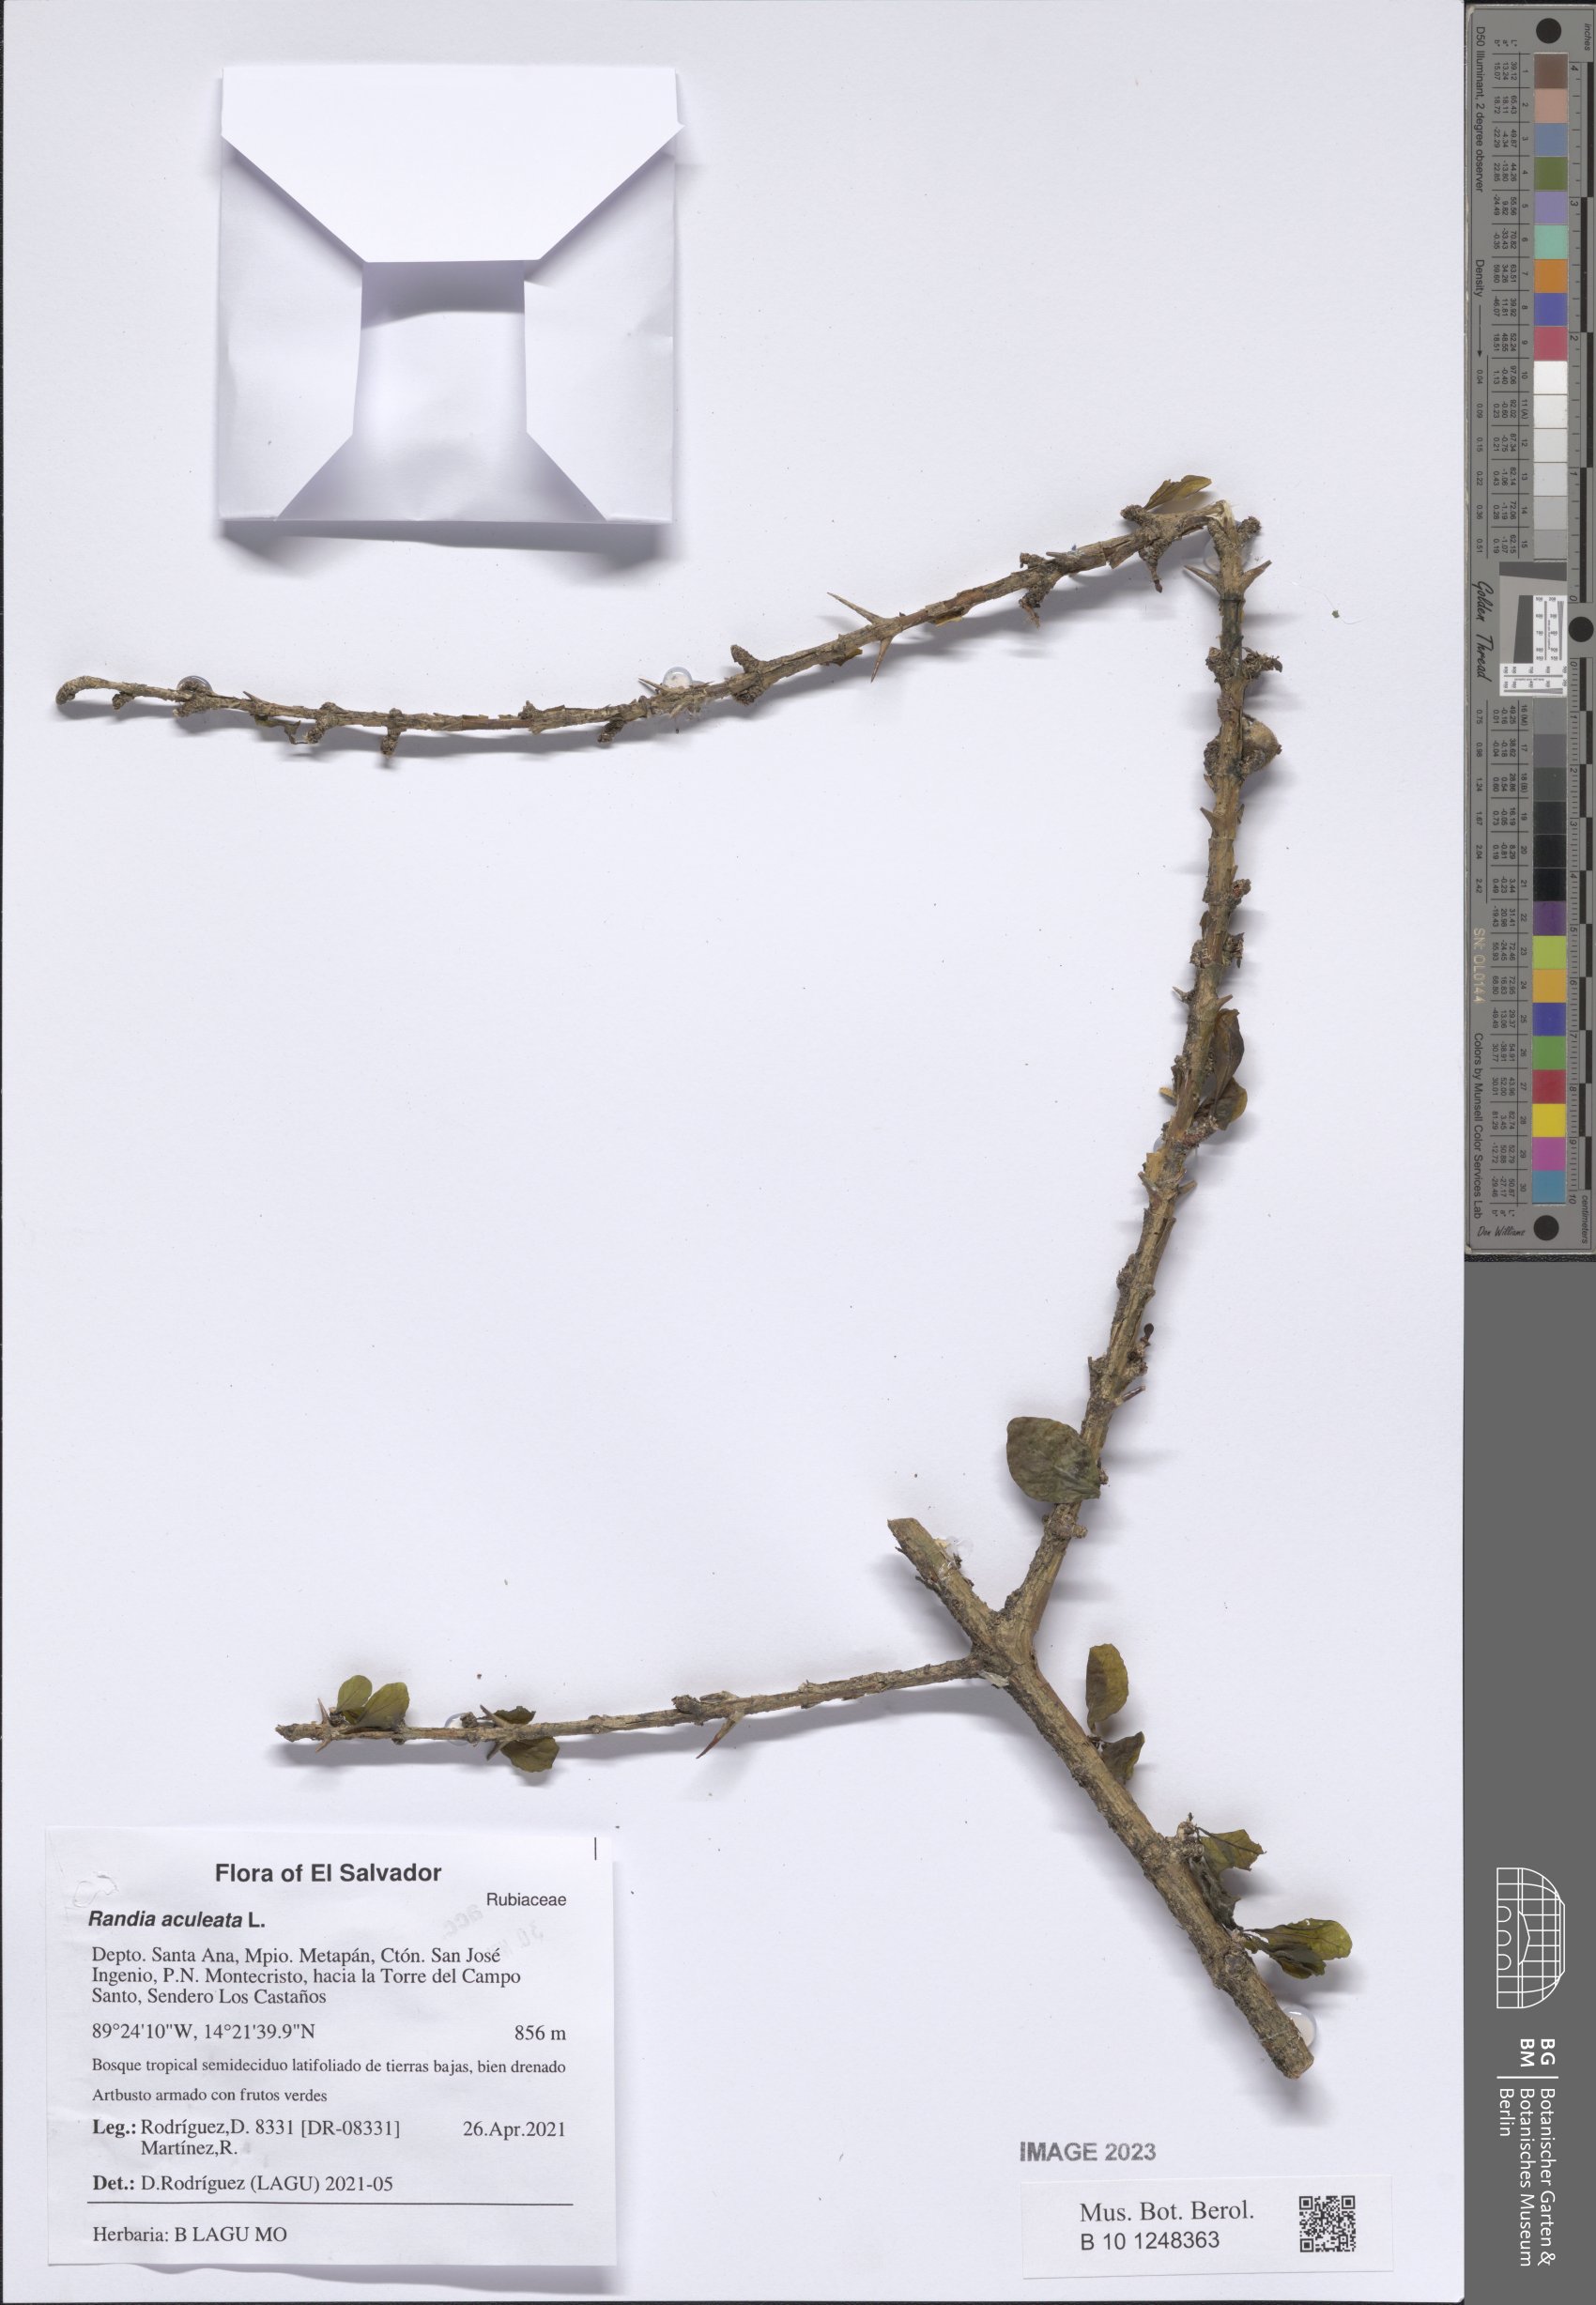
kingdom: Plantae
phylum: Tracheophyta
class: Magnoliopsida
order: Gentianales
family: Rubiaceae
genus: Randia
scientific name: Randia aculeata
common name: Inkberry
